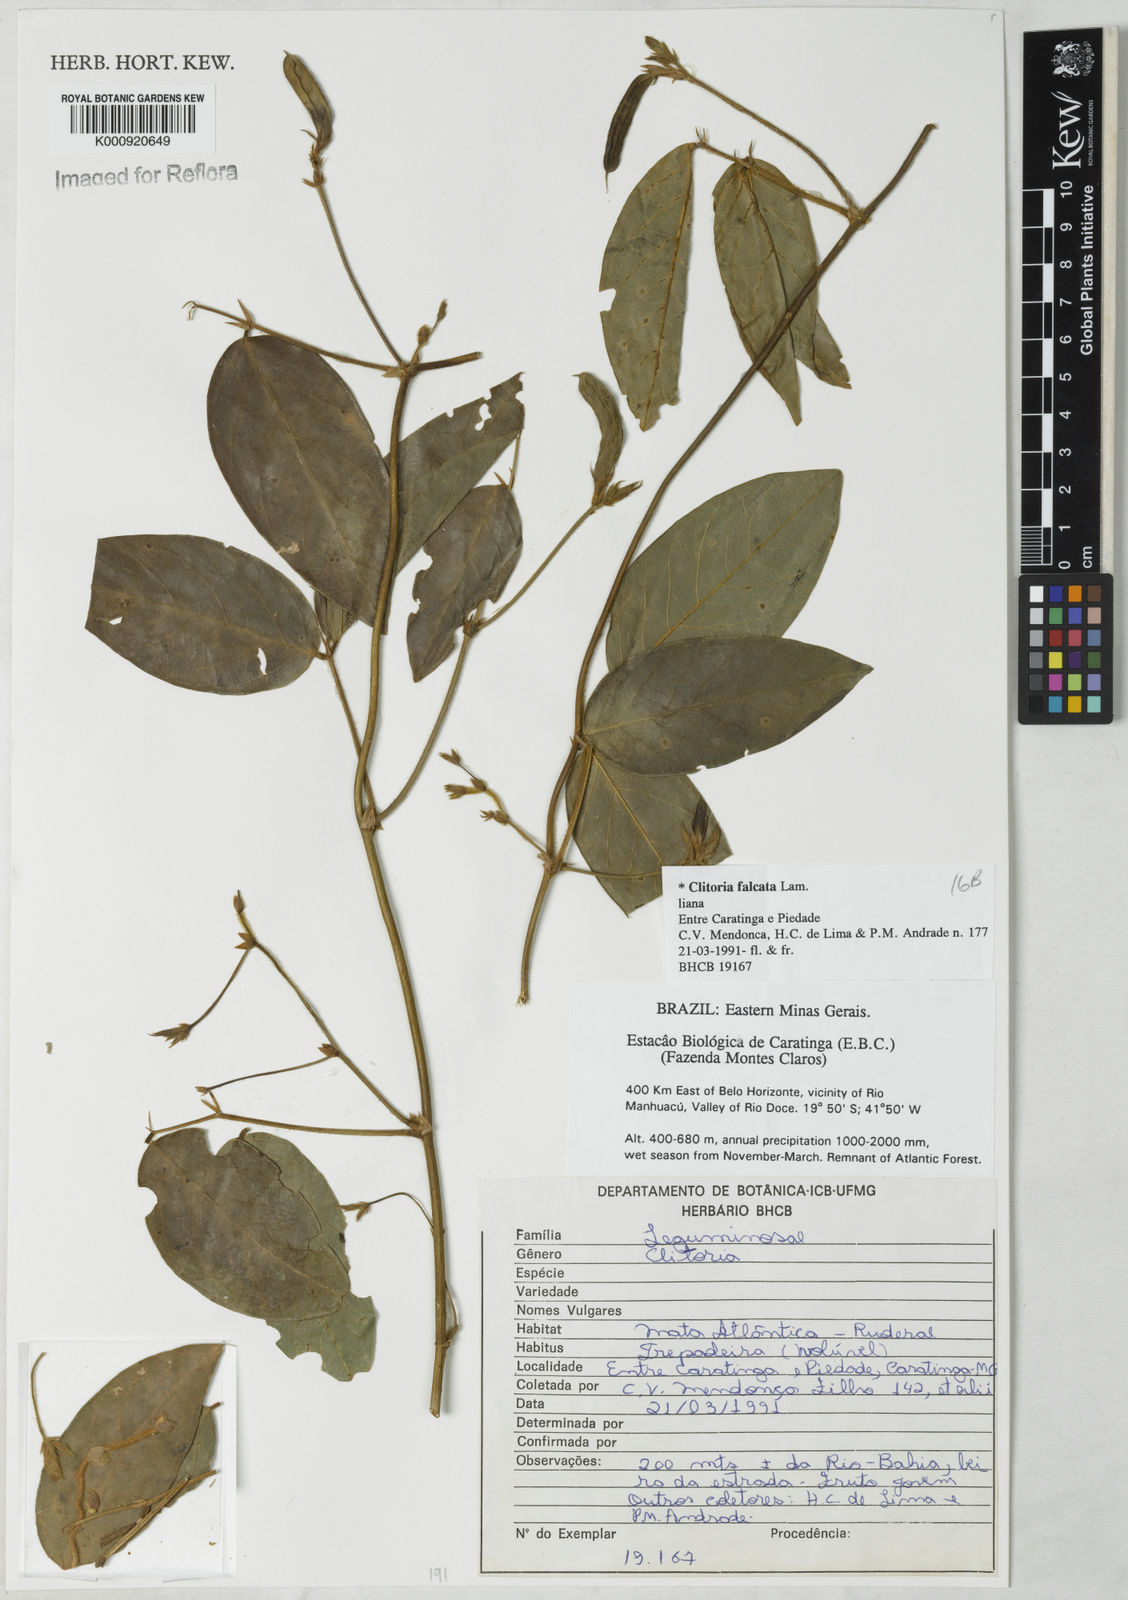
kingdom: Plantae
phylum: Tracheophyta
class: Magnoliopsida
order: Fabales
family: Fabaceae
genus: Clitoria
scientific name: Clitoria
